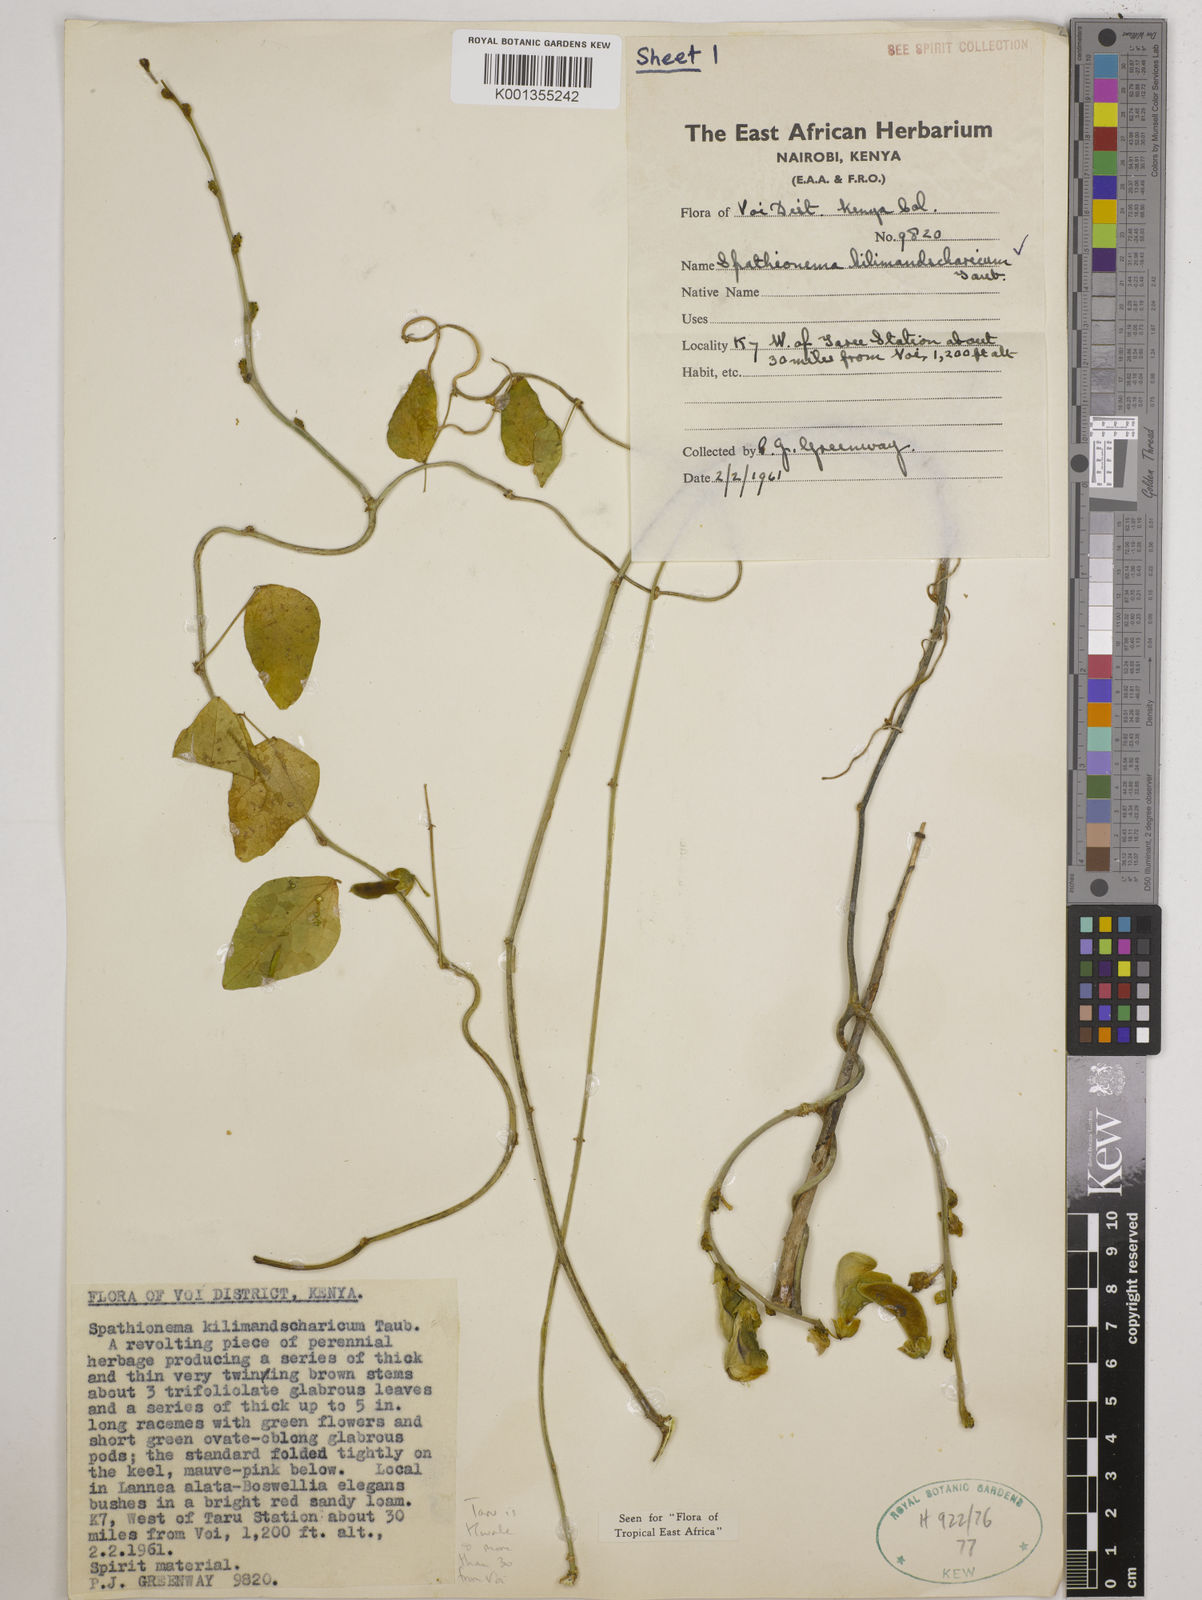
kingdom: Plantae
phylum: Tracheophyta
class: Magnoliopsida
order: Fabales
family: Fabaceae
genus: Spathionema
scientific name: Spathionema kilimandscharicum
